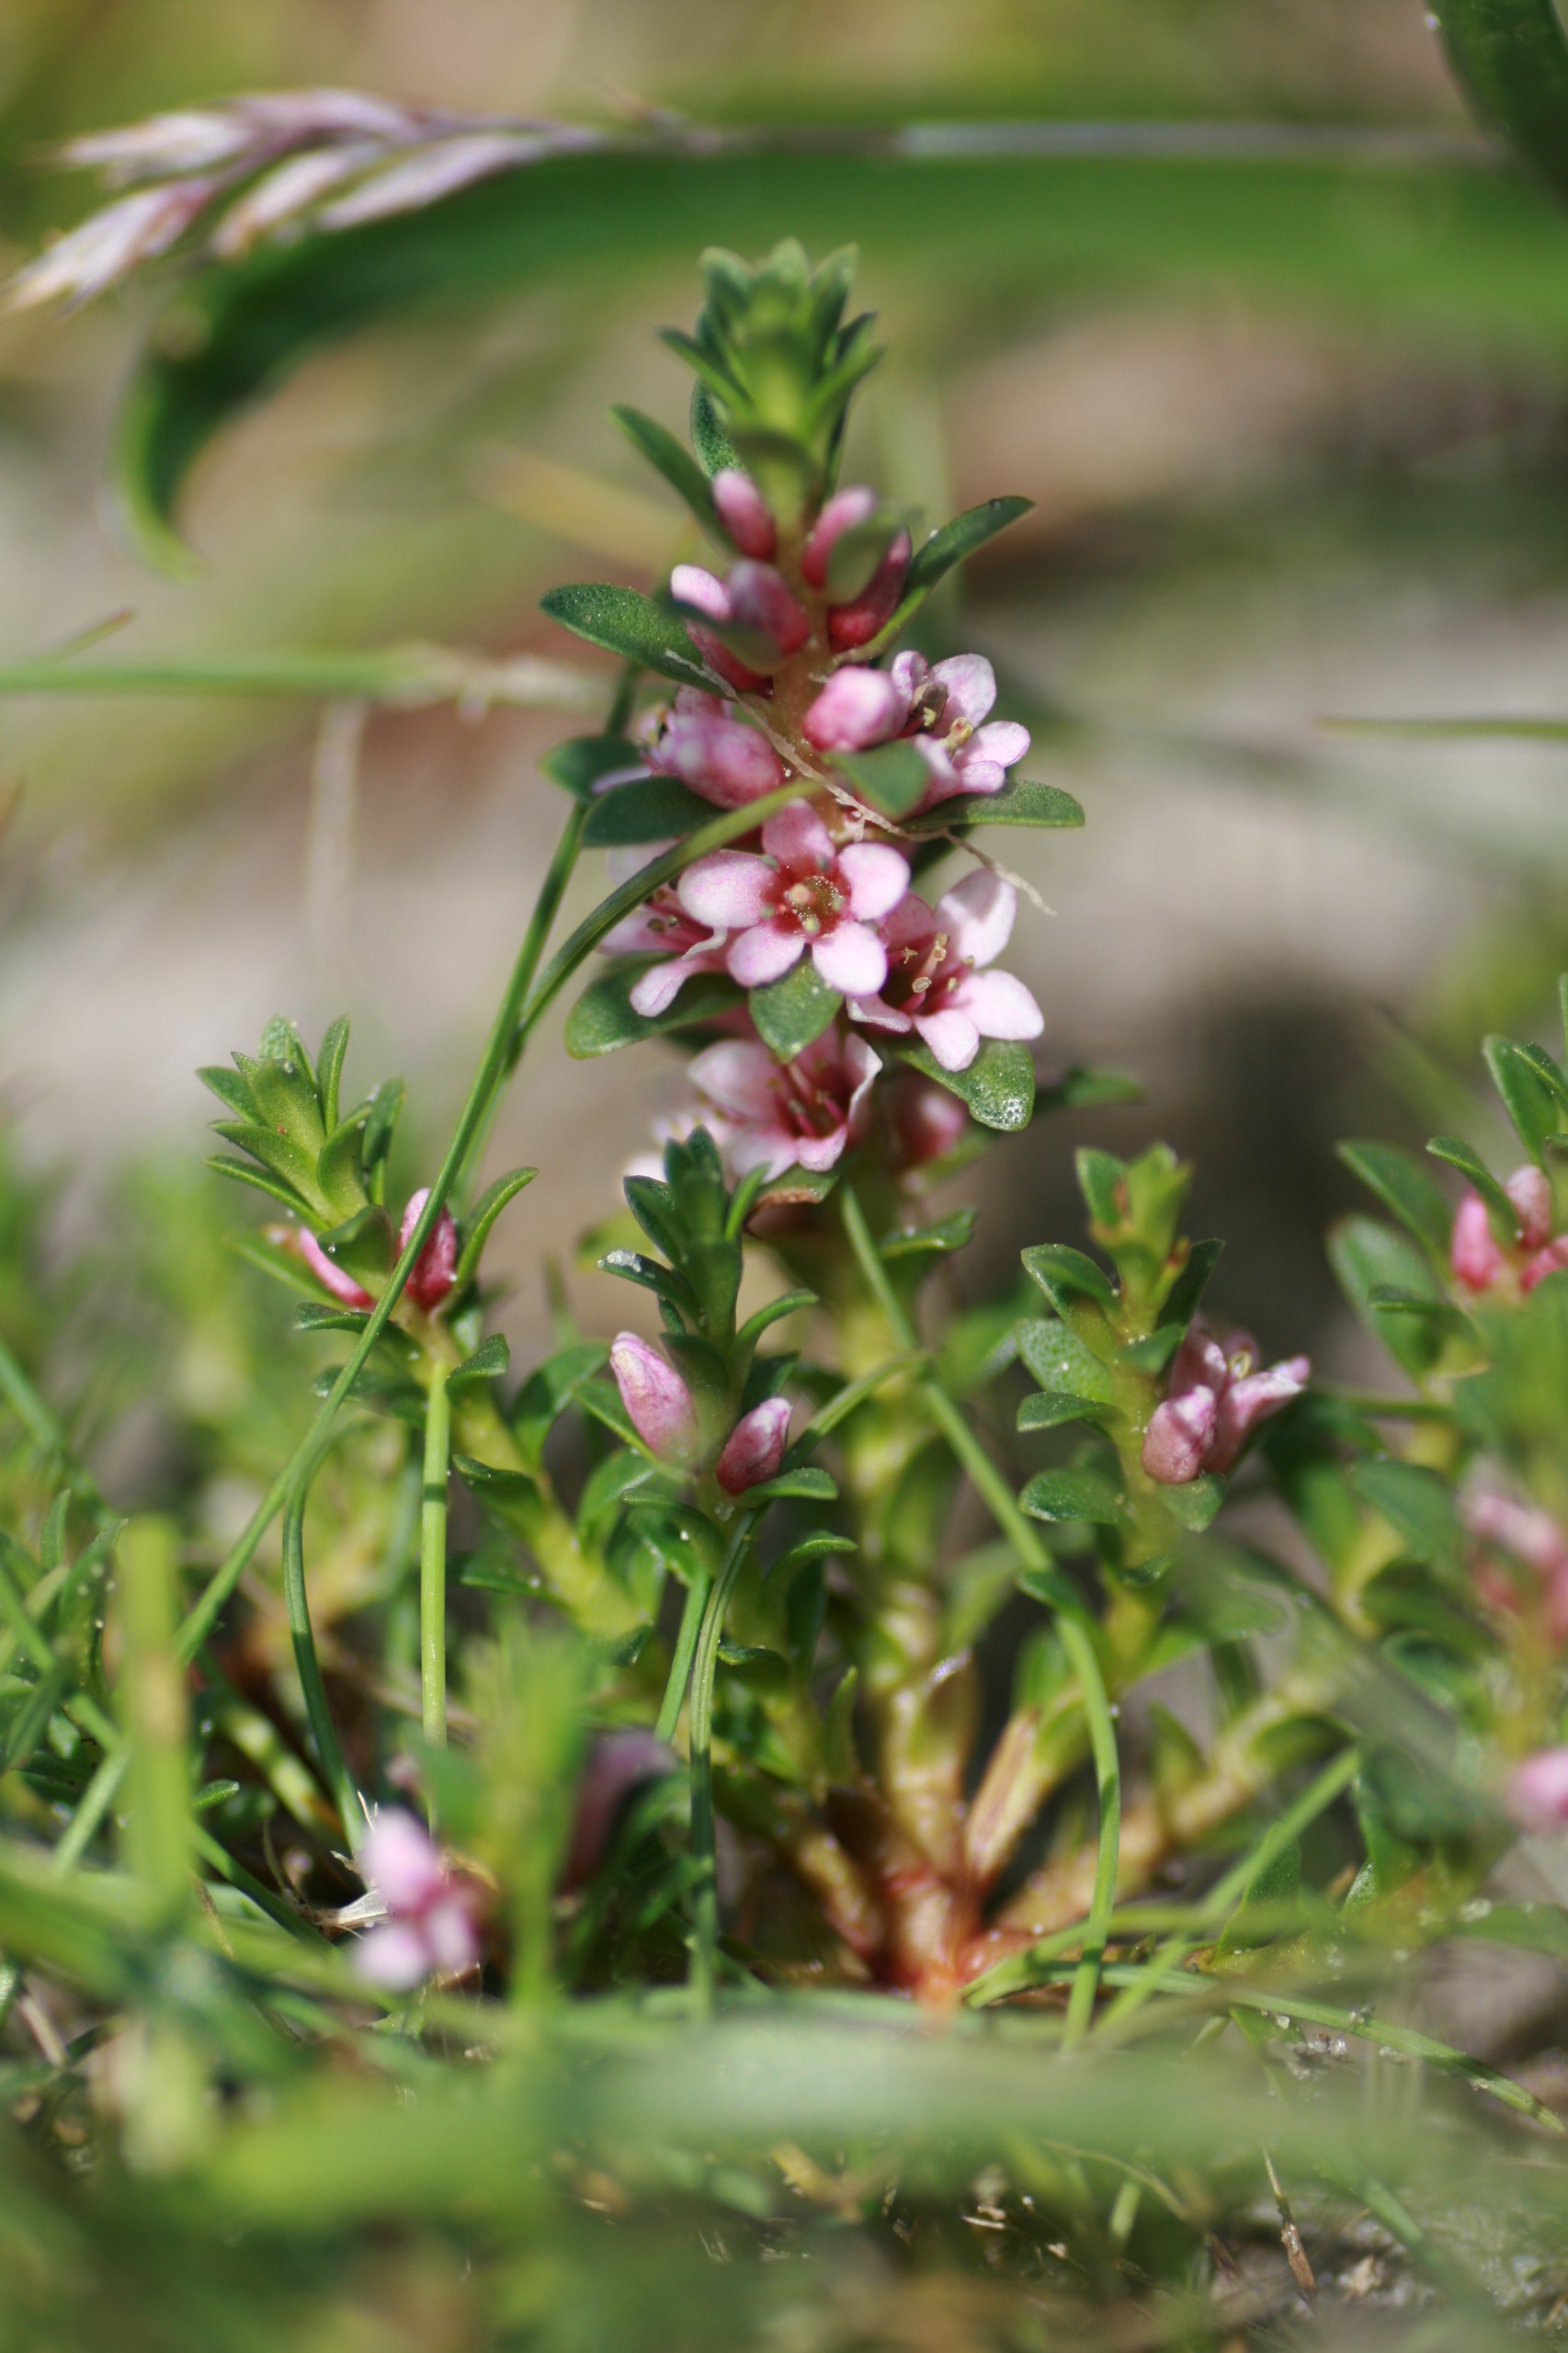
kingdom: Plantae
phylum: Tracheophyta
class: Magnoliopsida
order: Ericales
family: Primulaceae
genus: Lysimachia
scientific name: Lysimachia maritima
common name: Sandkryb
